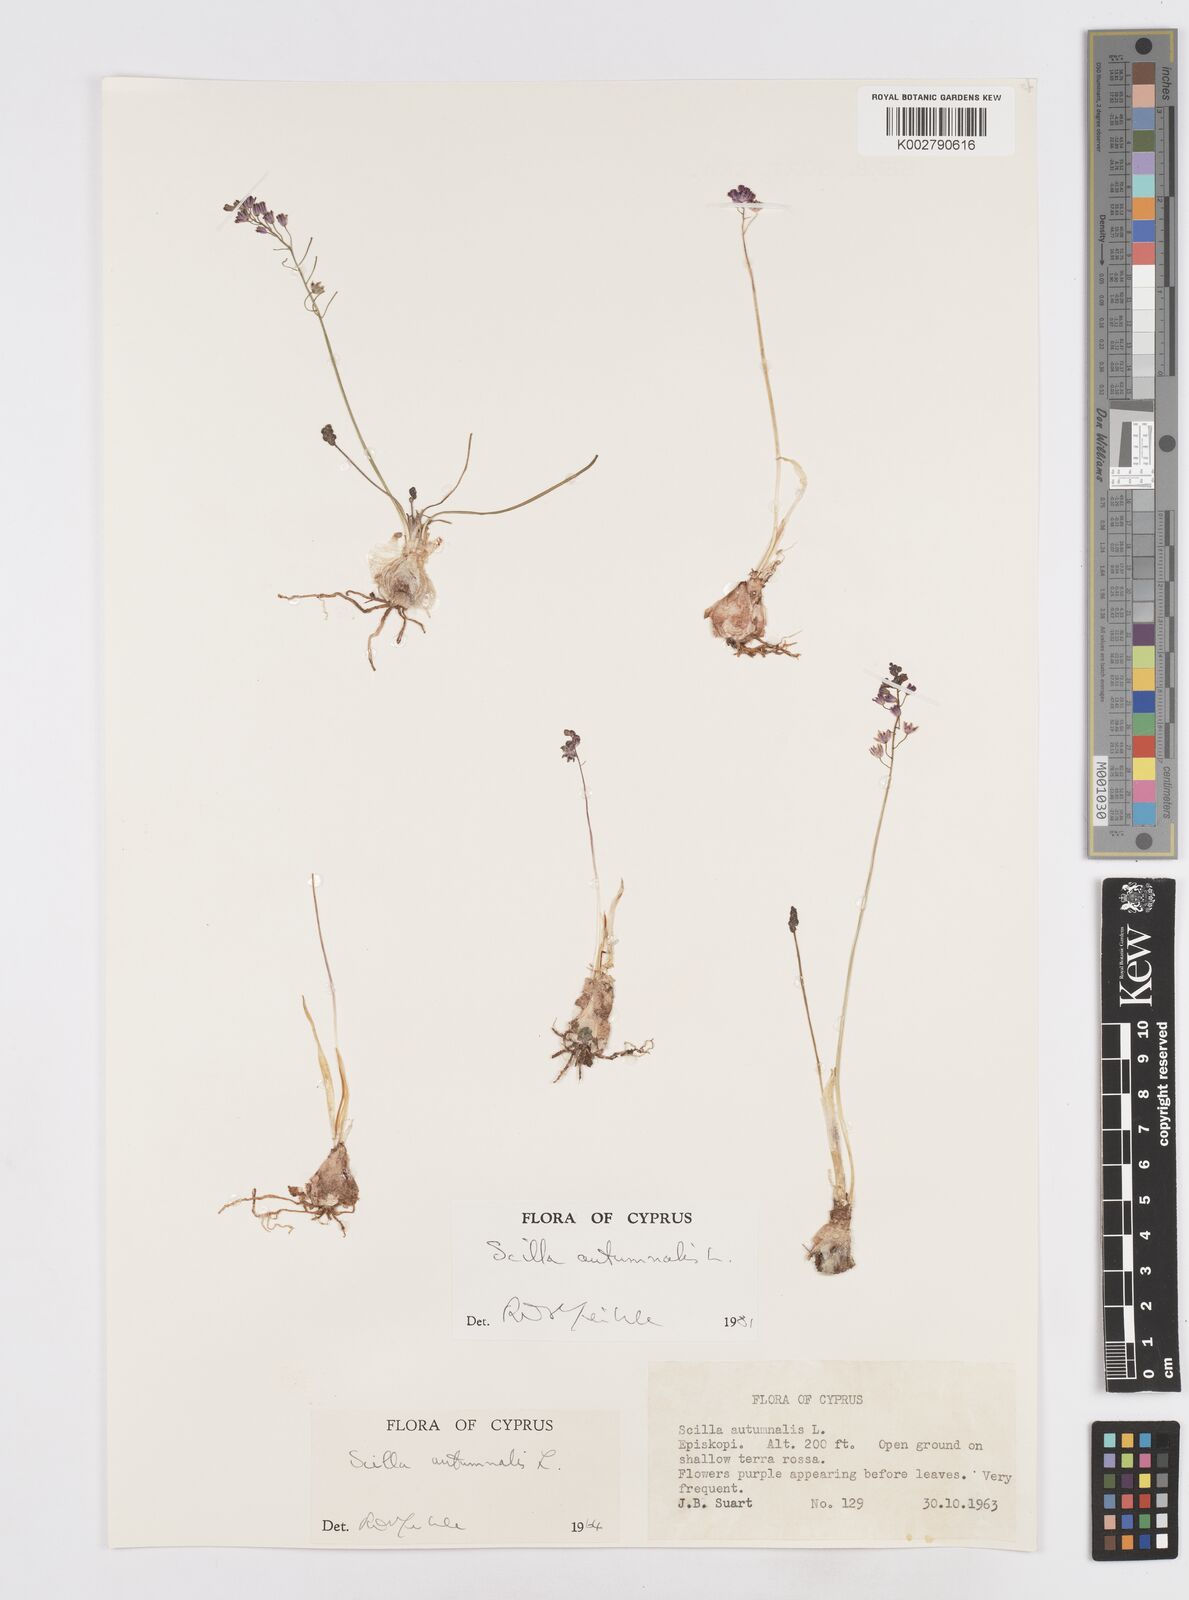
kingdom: Plantae
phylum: Tracheophyta
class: Liliopsida
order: Asparagales
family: Asparagaceae
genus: Prospero
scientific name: Prospero autumnale
